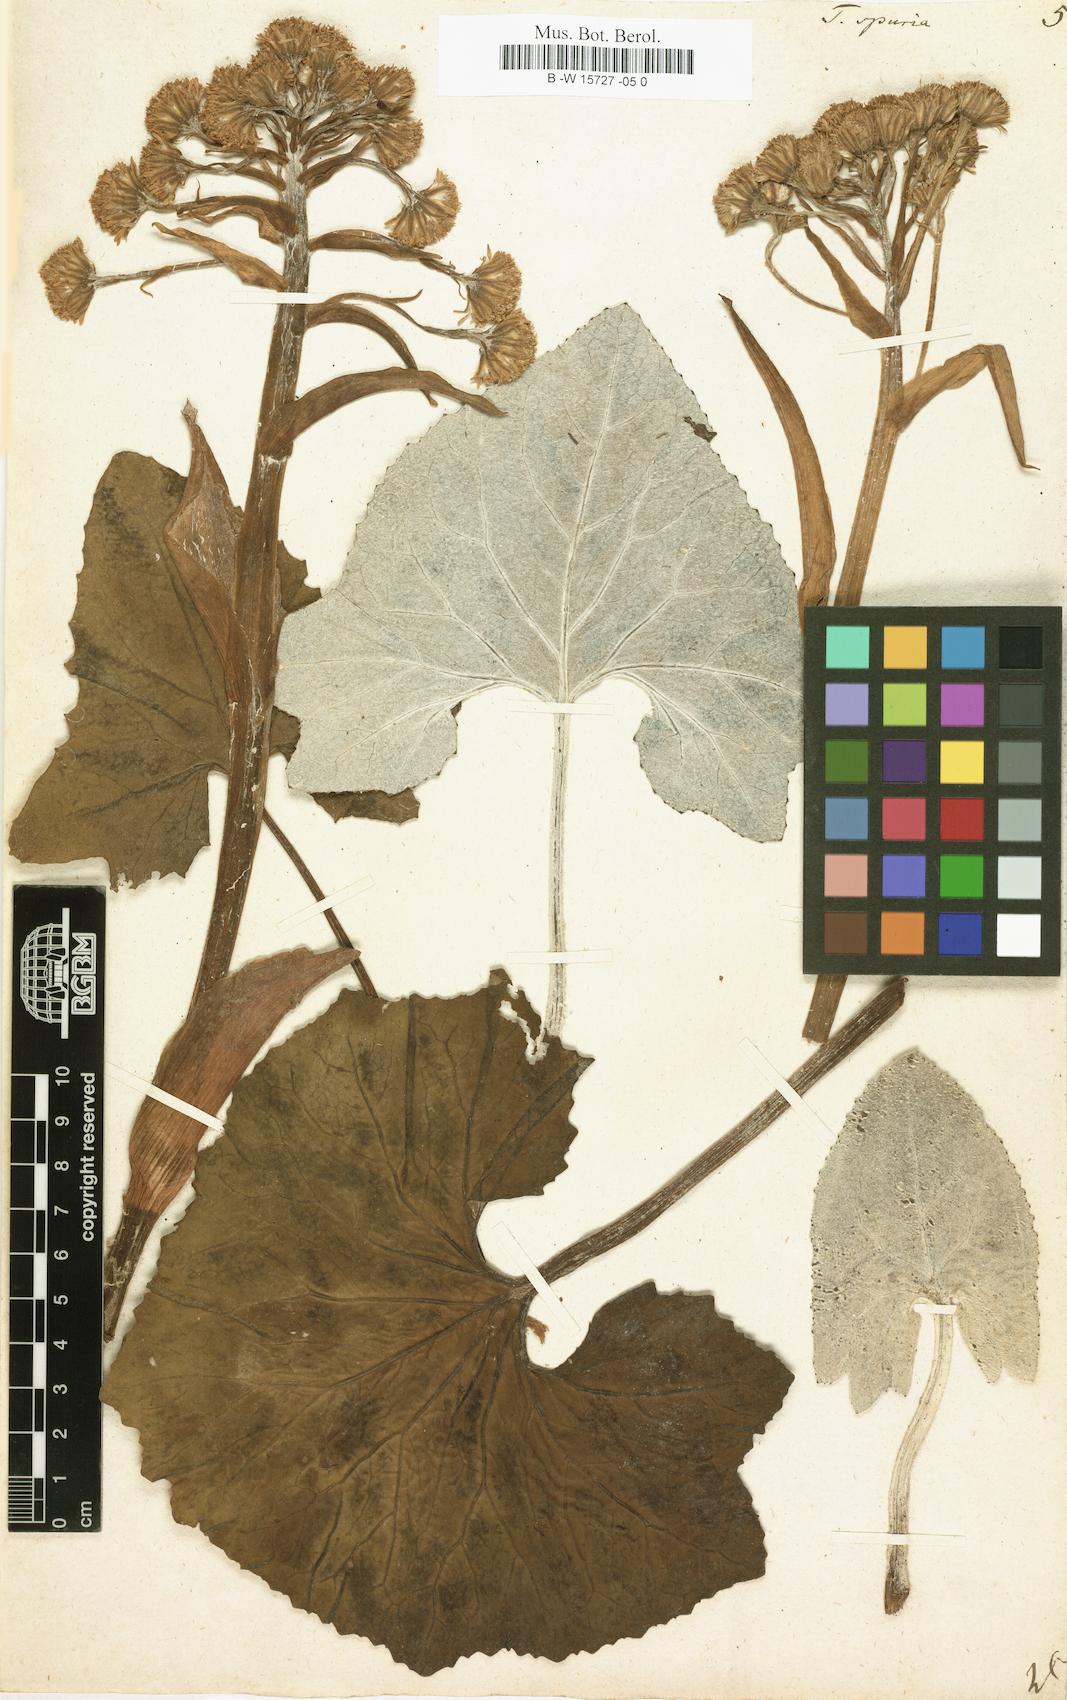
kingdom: Plantae
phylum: Tracheophyta
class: Magnoliopsida
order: Asterales
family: Asteraceae
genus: Petasites
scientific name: Petasites
